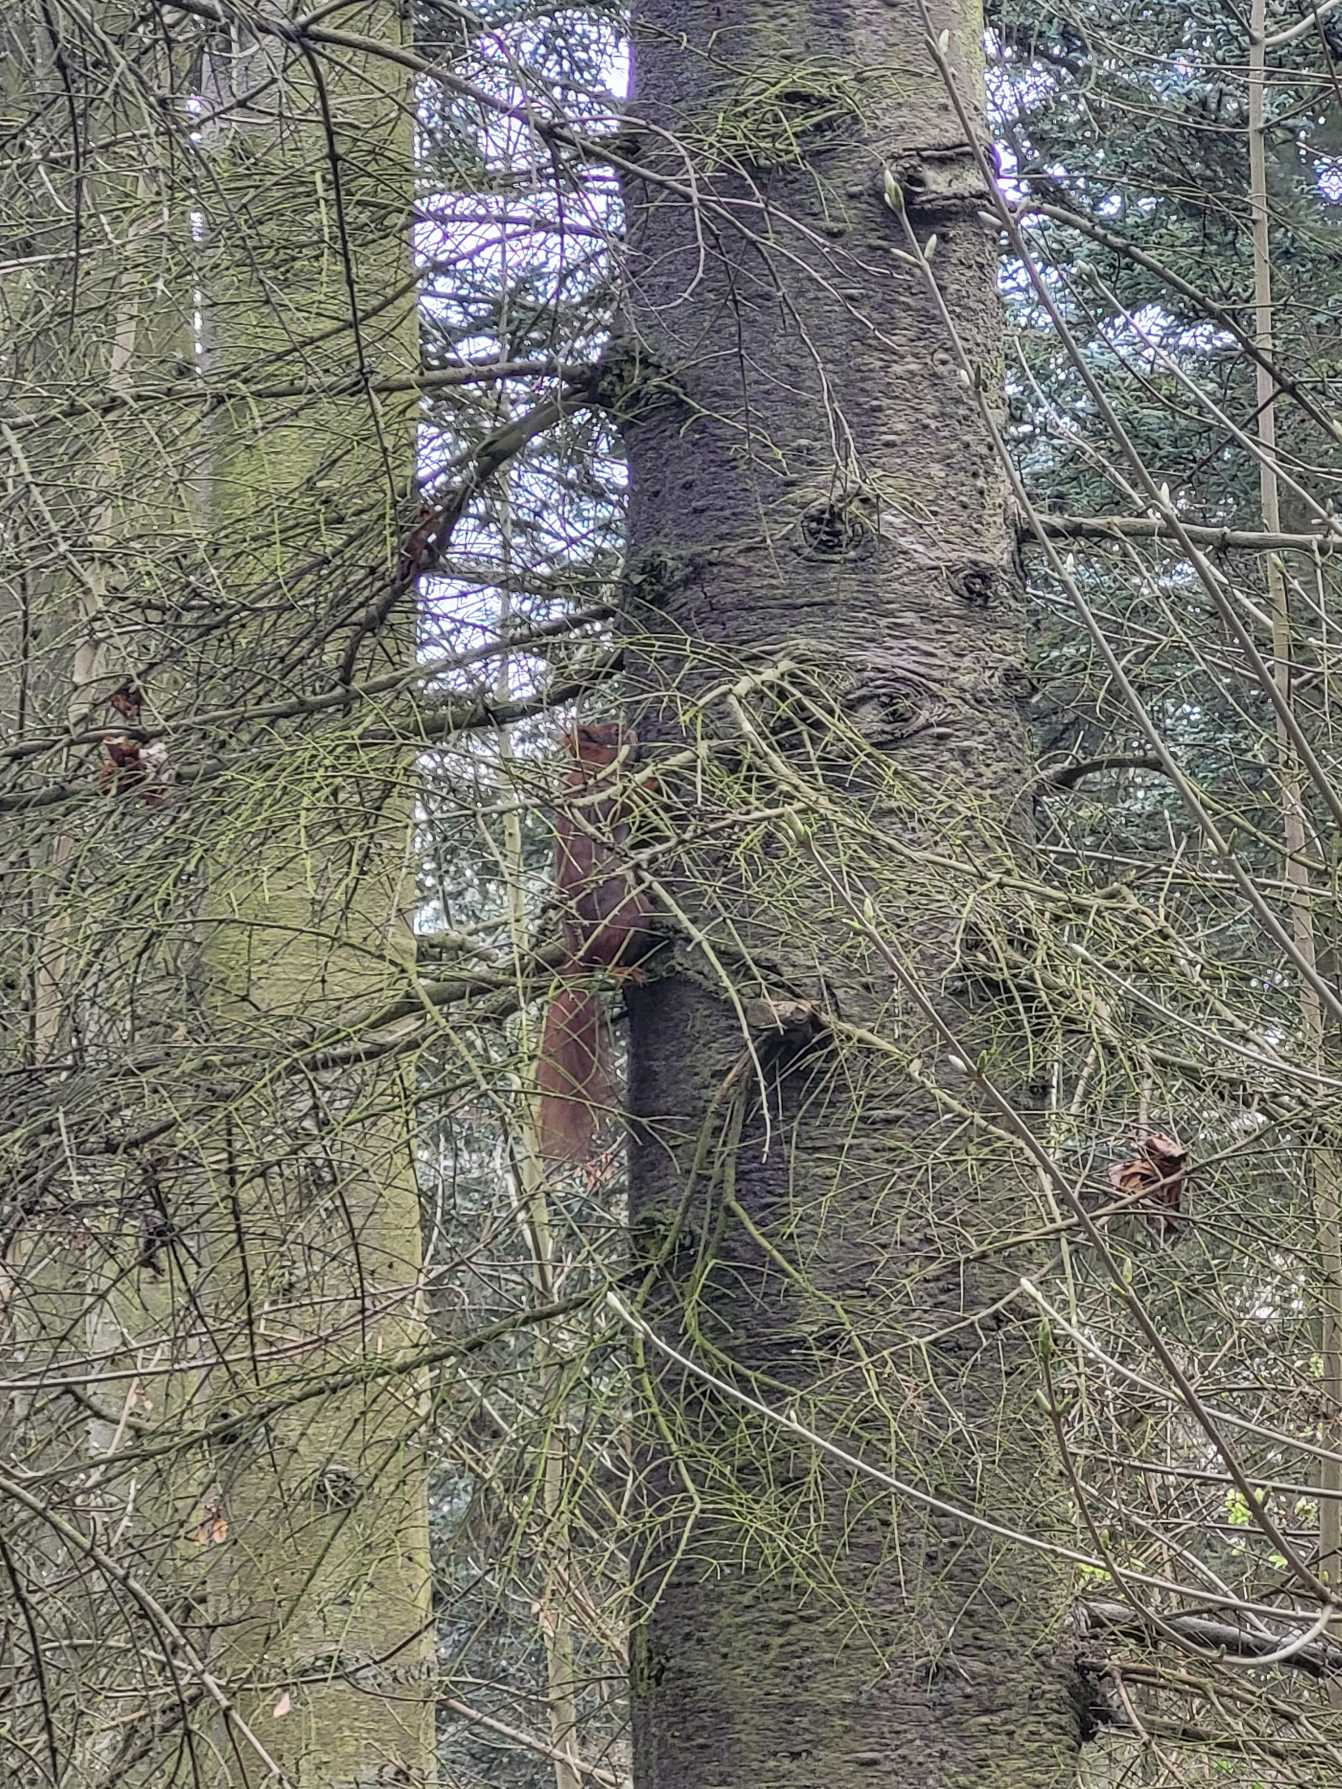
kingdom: Animalia
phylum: Chordata
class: Mammalia
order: Rodentia
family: Sciuridae
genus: Sciurus
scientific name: Sciurus vulgaris
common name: Egern
